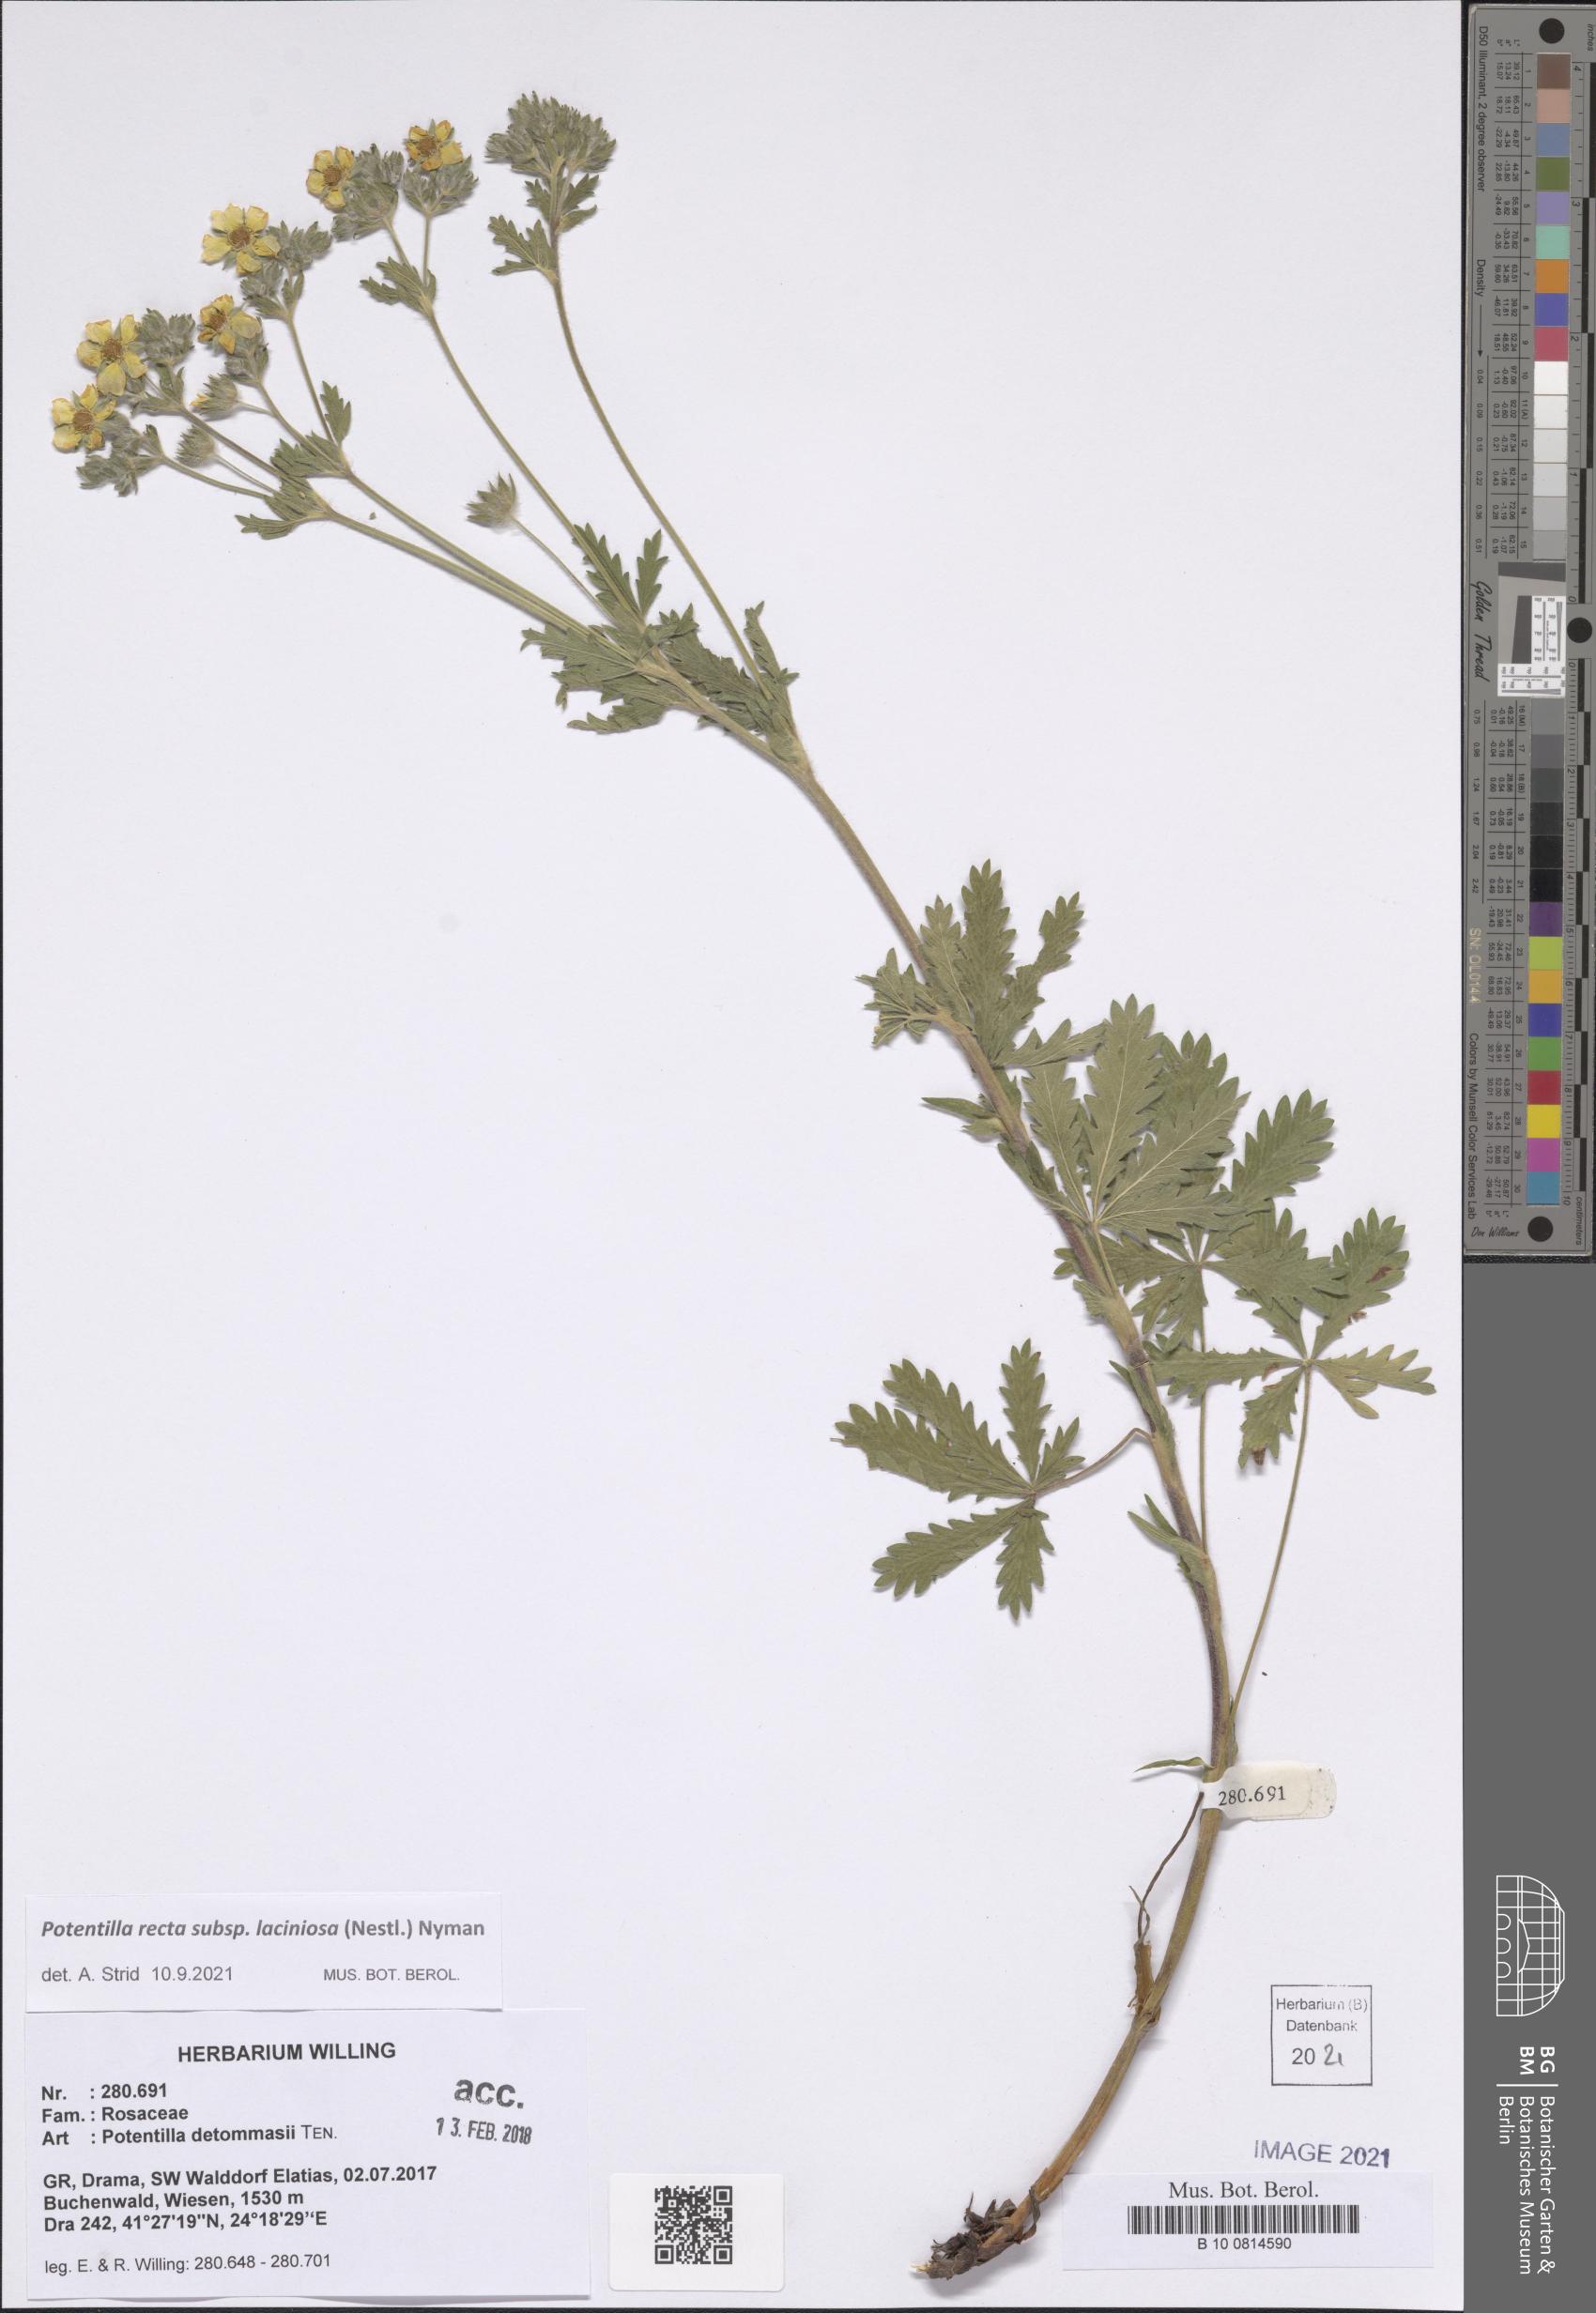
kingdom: Plantae
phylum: Tracheophyta
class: Magnoliopsida
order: Rosales
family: Rosaceae
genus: Potentilla
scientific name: Potentilla recta
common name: Sulphur cinquefoil
